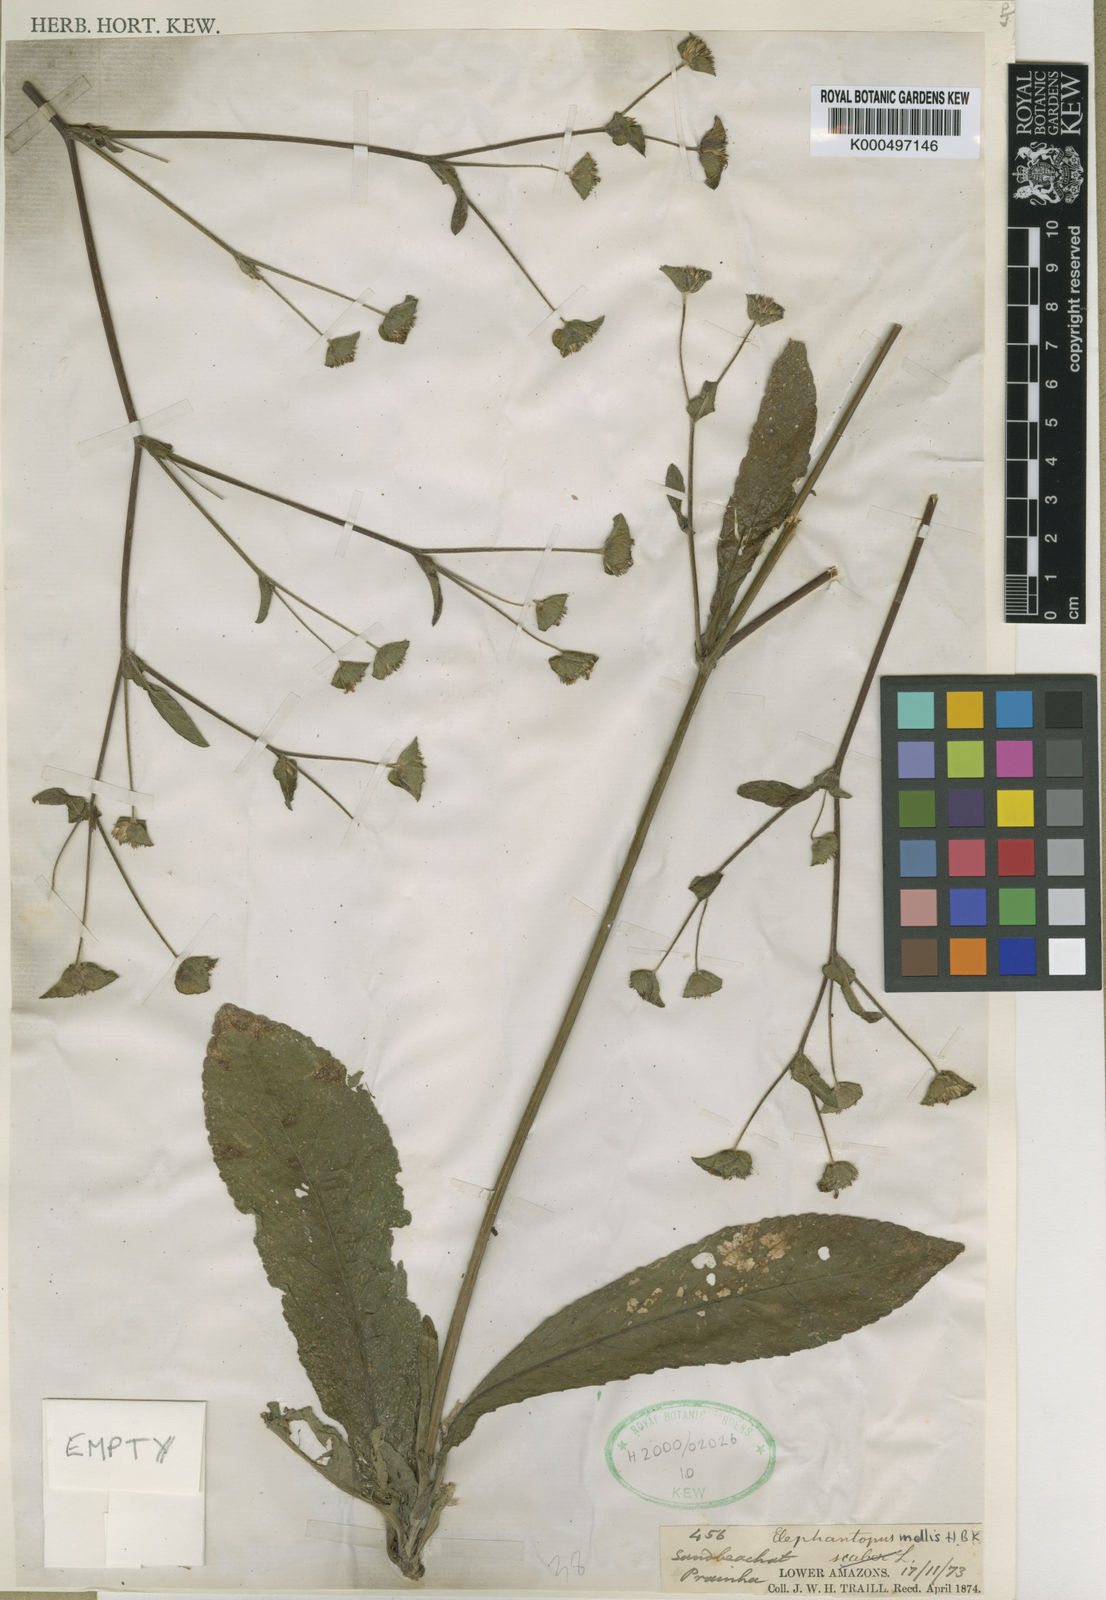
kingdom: Plantae
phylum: Tracheophyta
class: Magnoliopsida
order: Asterales
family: Asteraceae
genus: Elephantopus
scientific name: Elephantopus mollis
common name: Soft elephantsfoot
